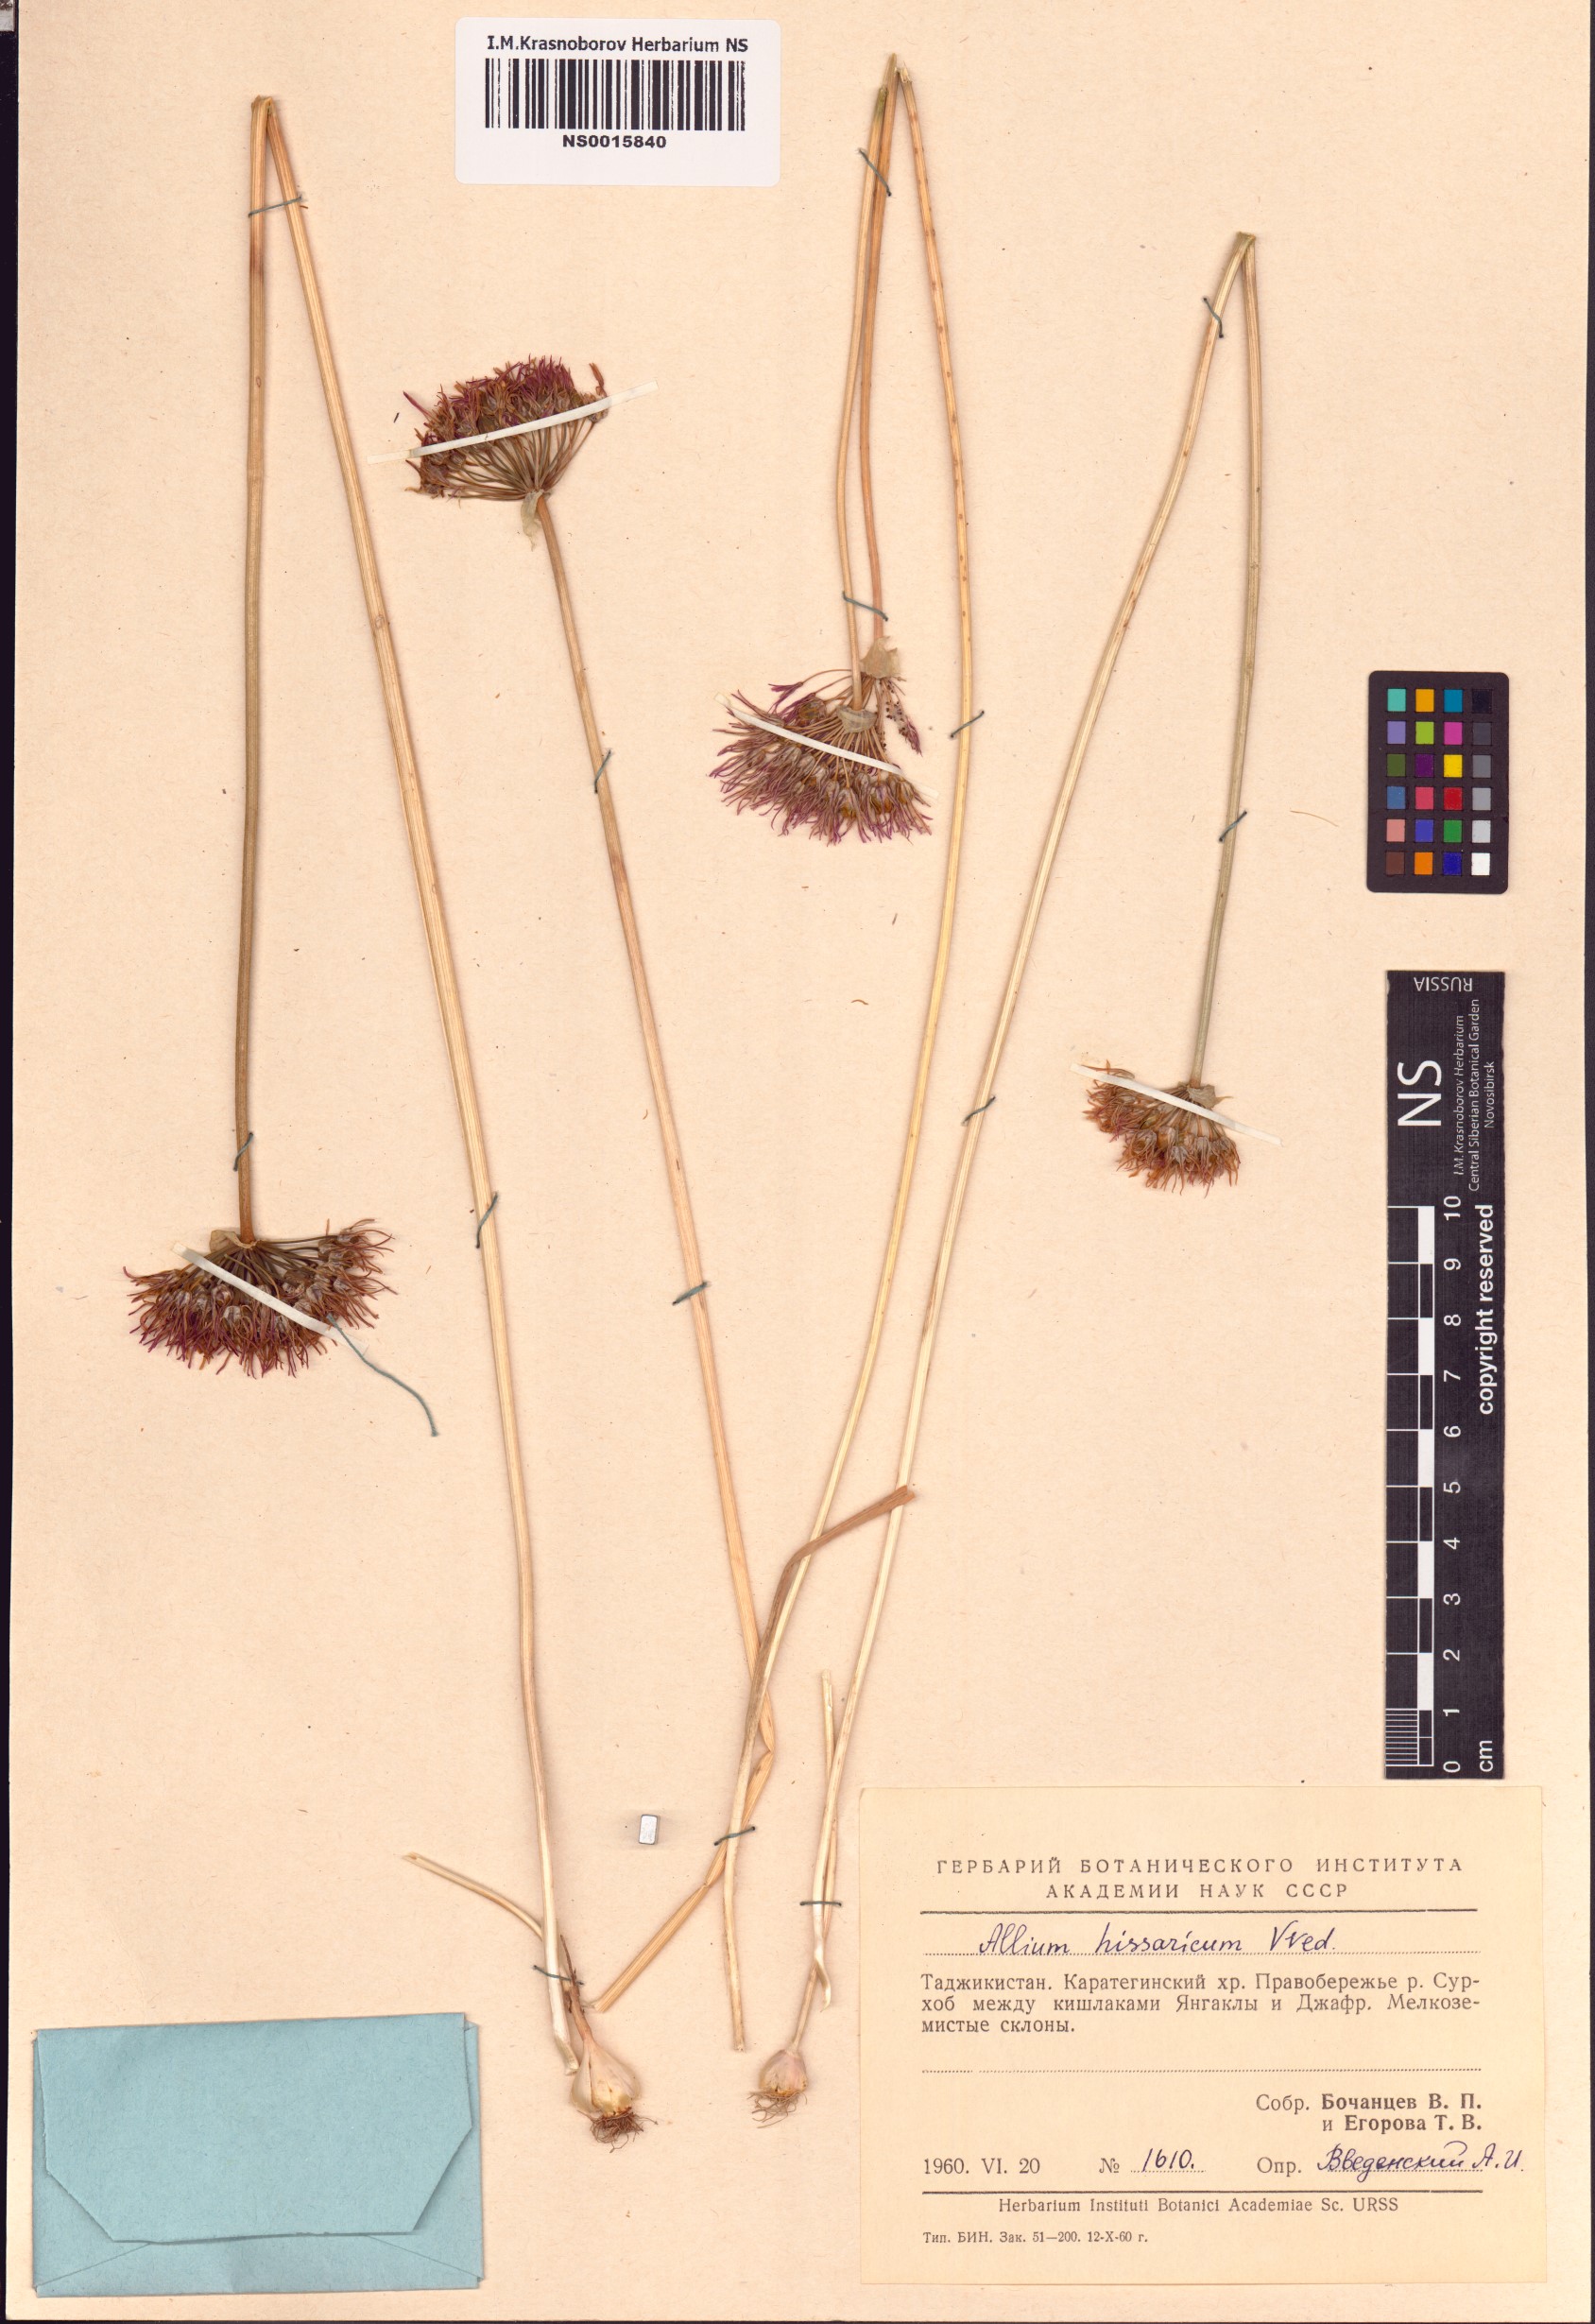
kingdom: Plantae
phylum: Tracheophyta
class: Liliopsida
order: Asparagales
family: Amaryllidaceae
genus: Allium
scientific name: Allium hissaricum
